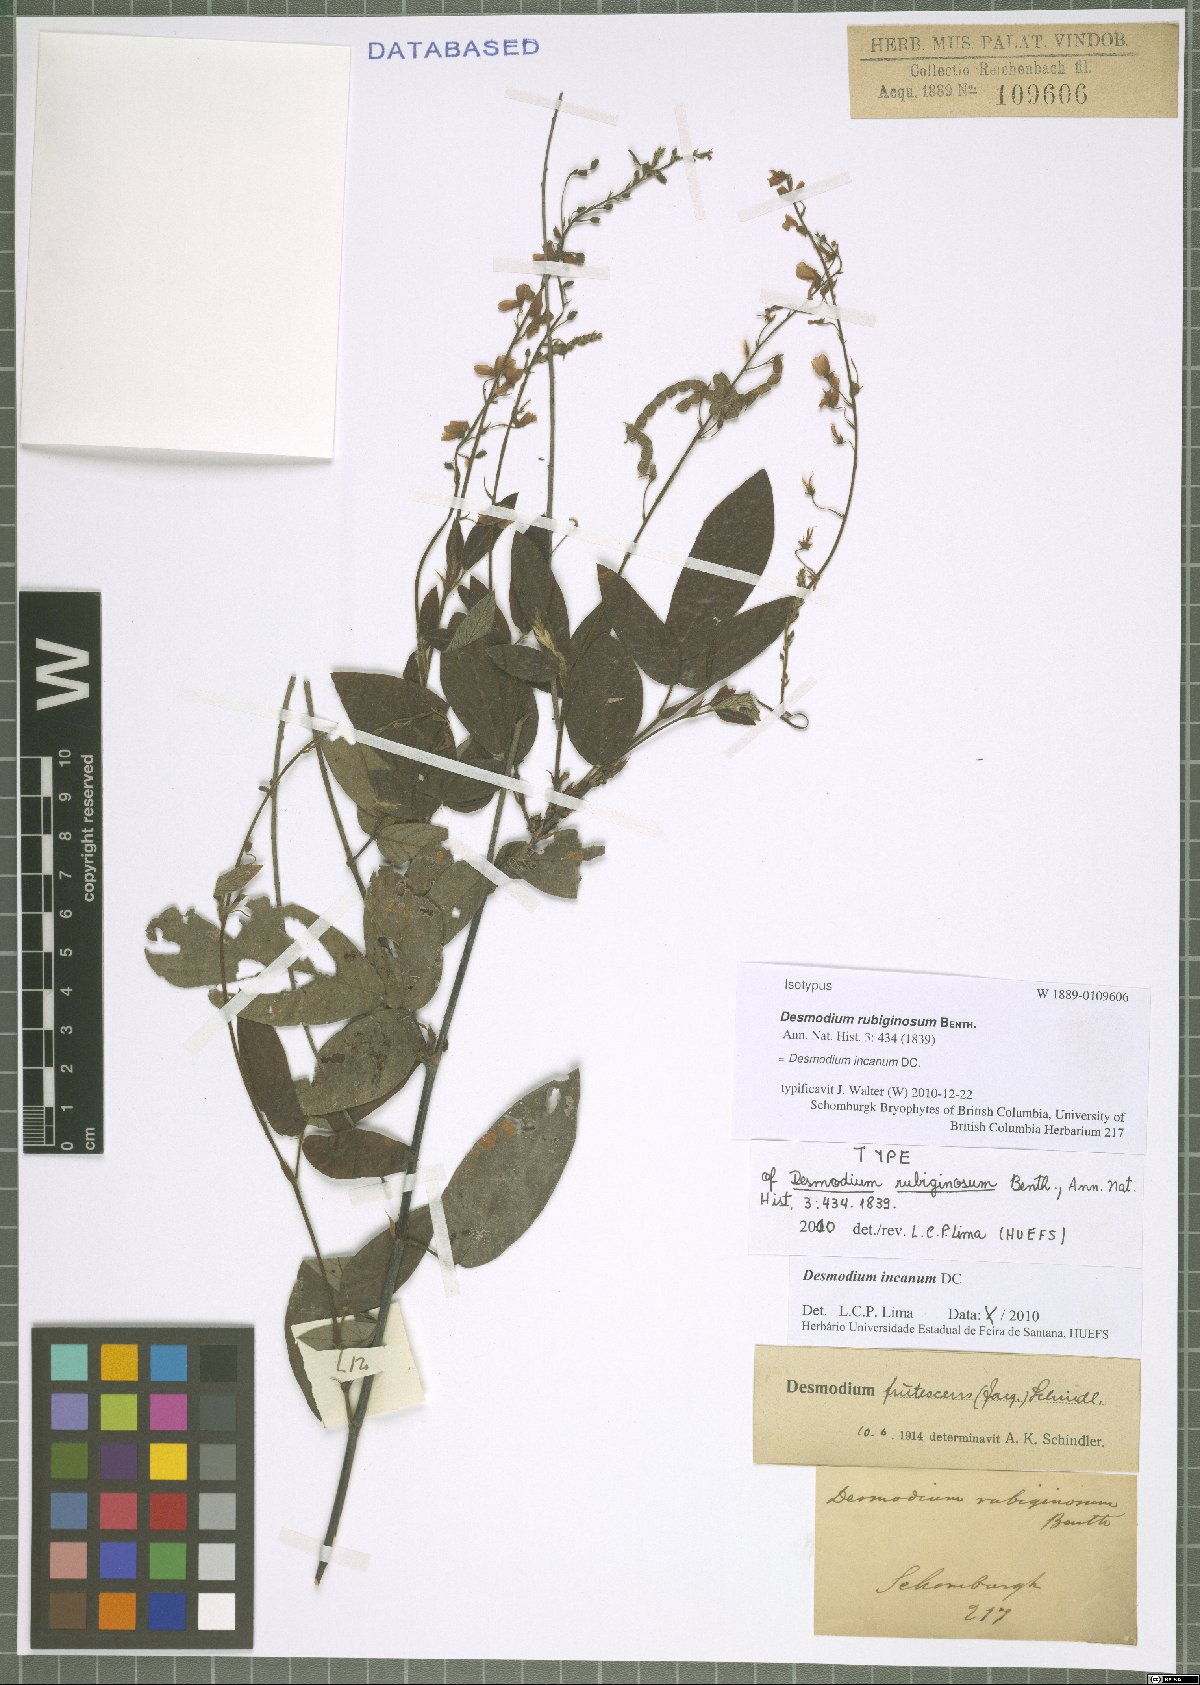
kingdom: Plantae
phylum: Tracheophyta
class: Magnoliopsida
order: Fabales
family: Fabaceae
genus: Desmodium
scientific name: Desmodium incanum
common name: Tickclover
